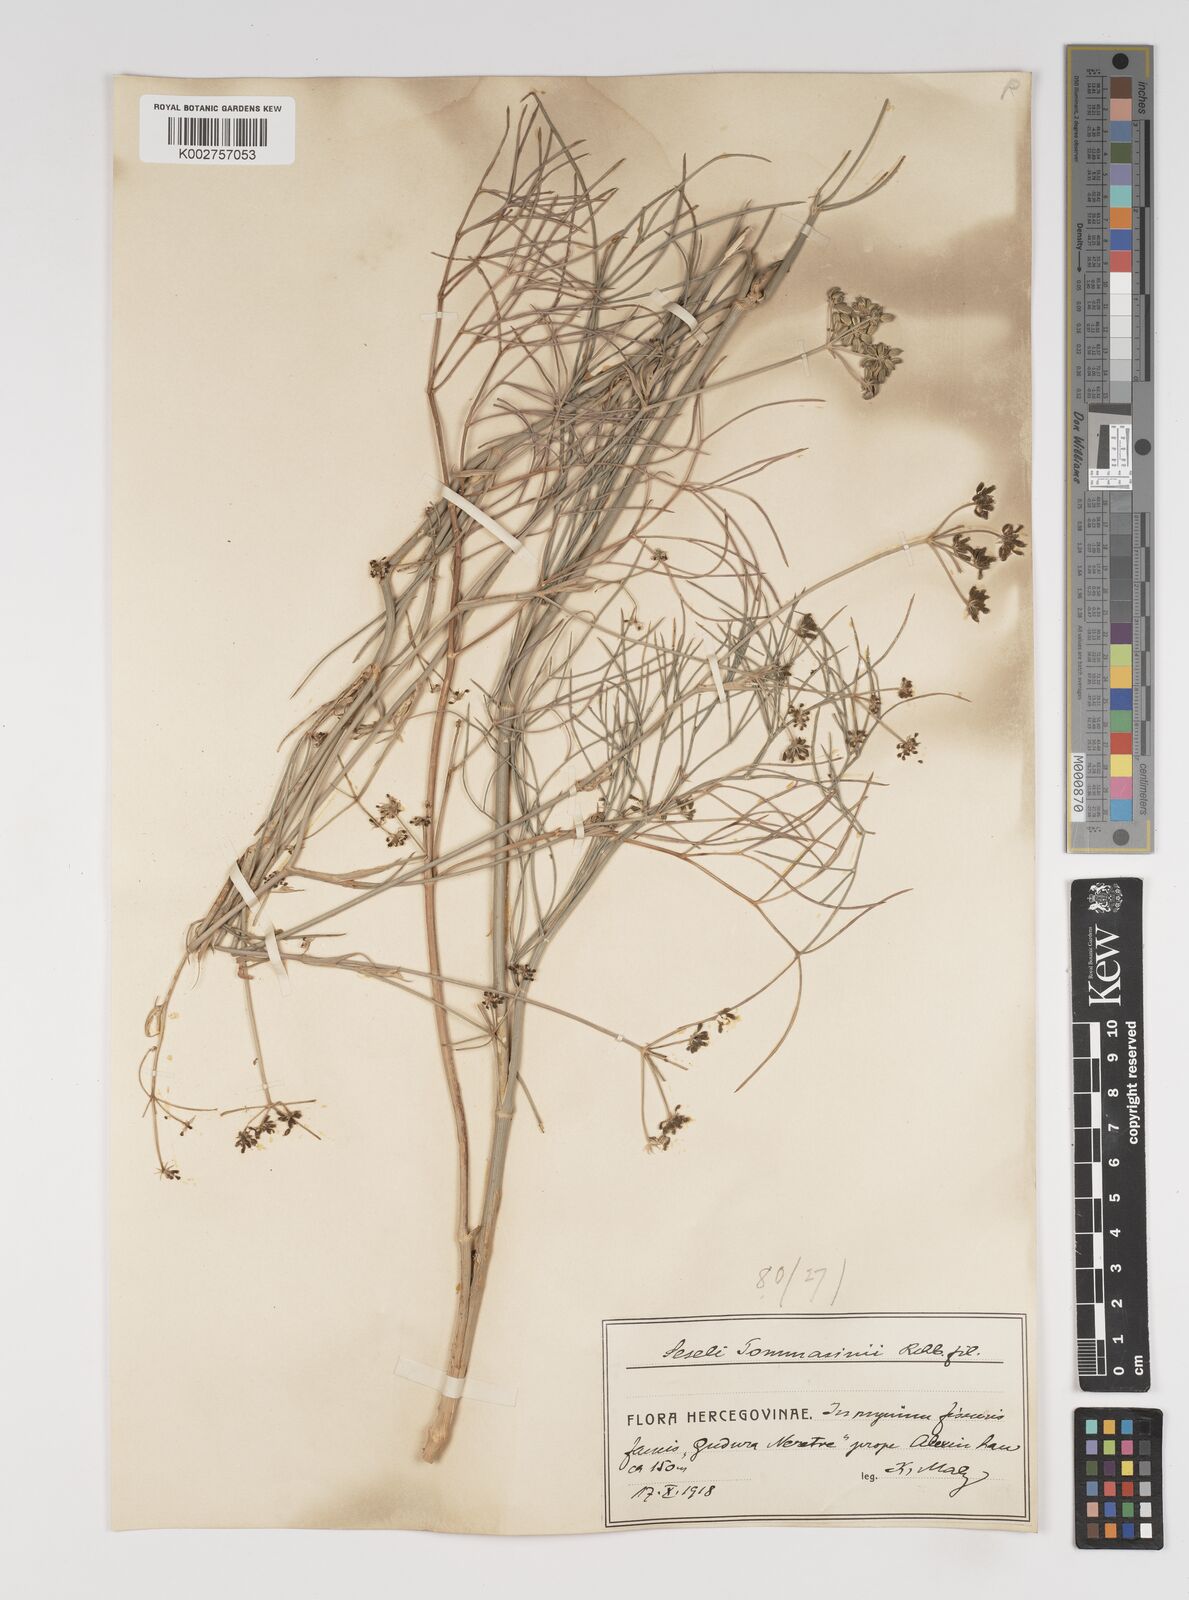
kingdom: Plantae
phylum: Tracheophyta
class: Magnoliopsida
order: Apiales
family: Apiaceae
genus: Seseli
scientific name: Seseli montanum
